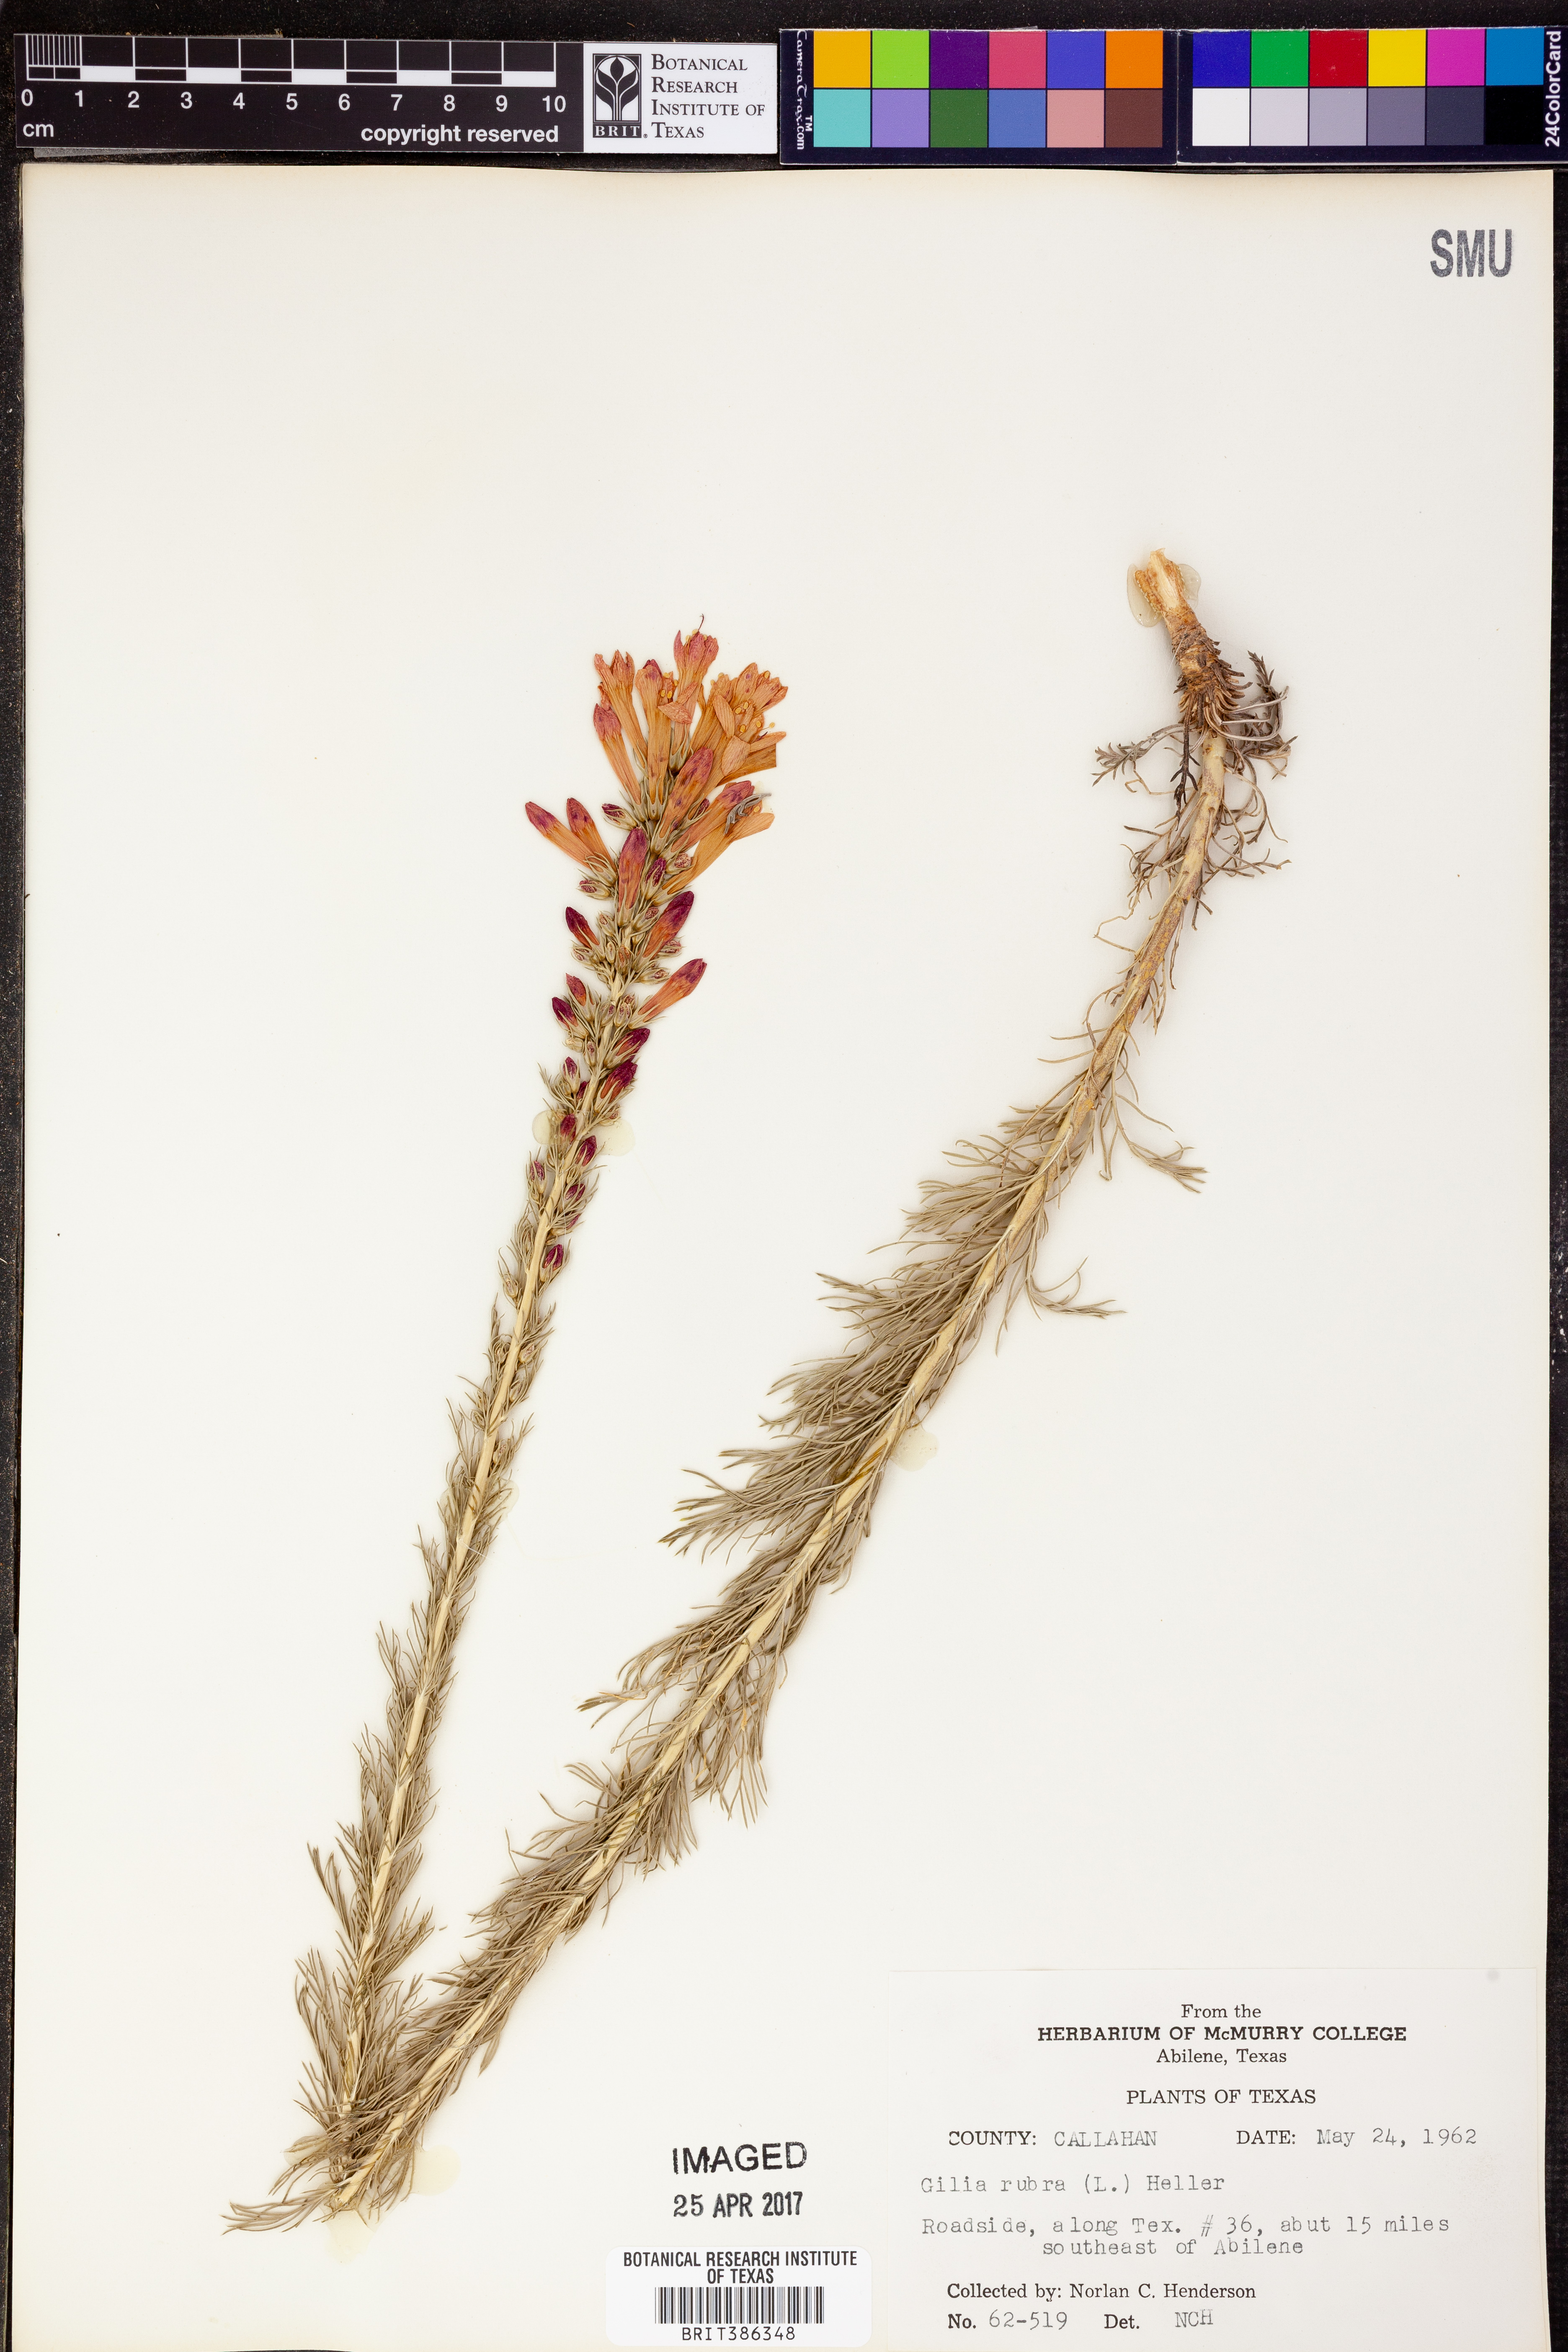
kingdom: Plantae
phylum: Tracheophyta
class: Magnoliopsida
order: Ericales
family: Polemoniaceae
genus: Ipomopsis
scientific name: Ipomopsis rubra
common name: Skyrocket
